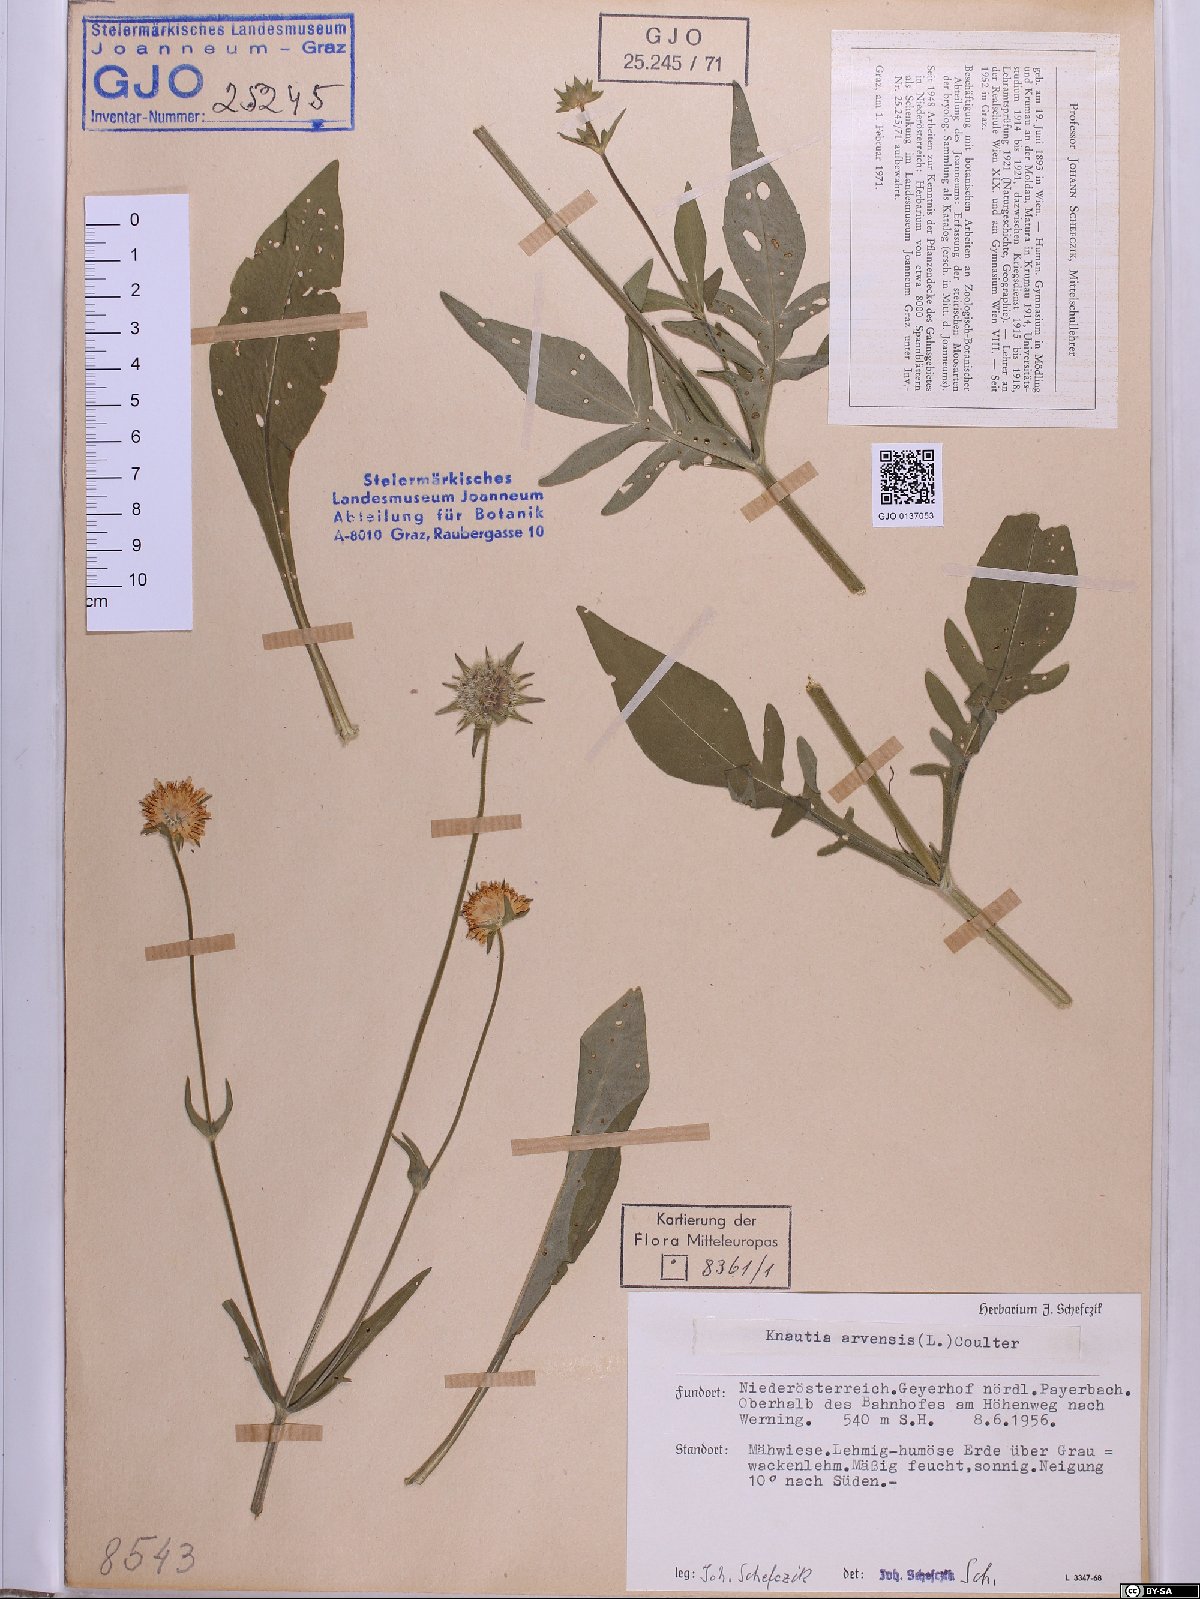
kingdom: Plantae
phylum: Tracheophyta
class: Magnoliopsida
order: Dipsacales
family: Caprifoliaceae
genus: Knautia
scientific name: Knautia arvensis
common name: Field scabiosa
